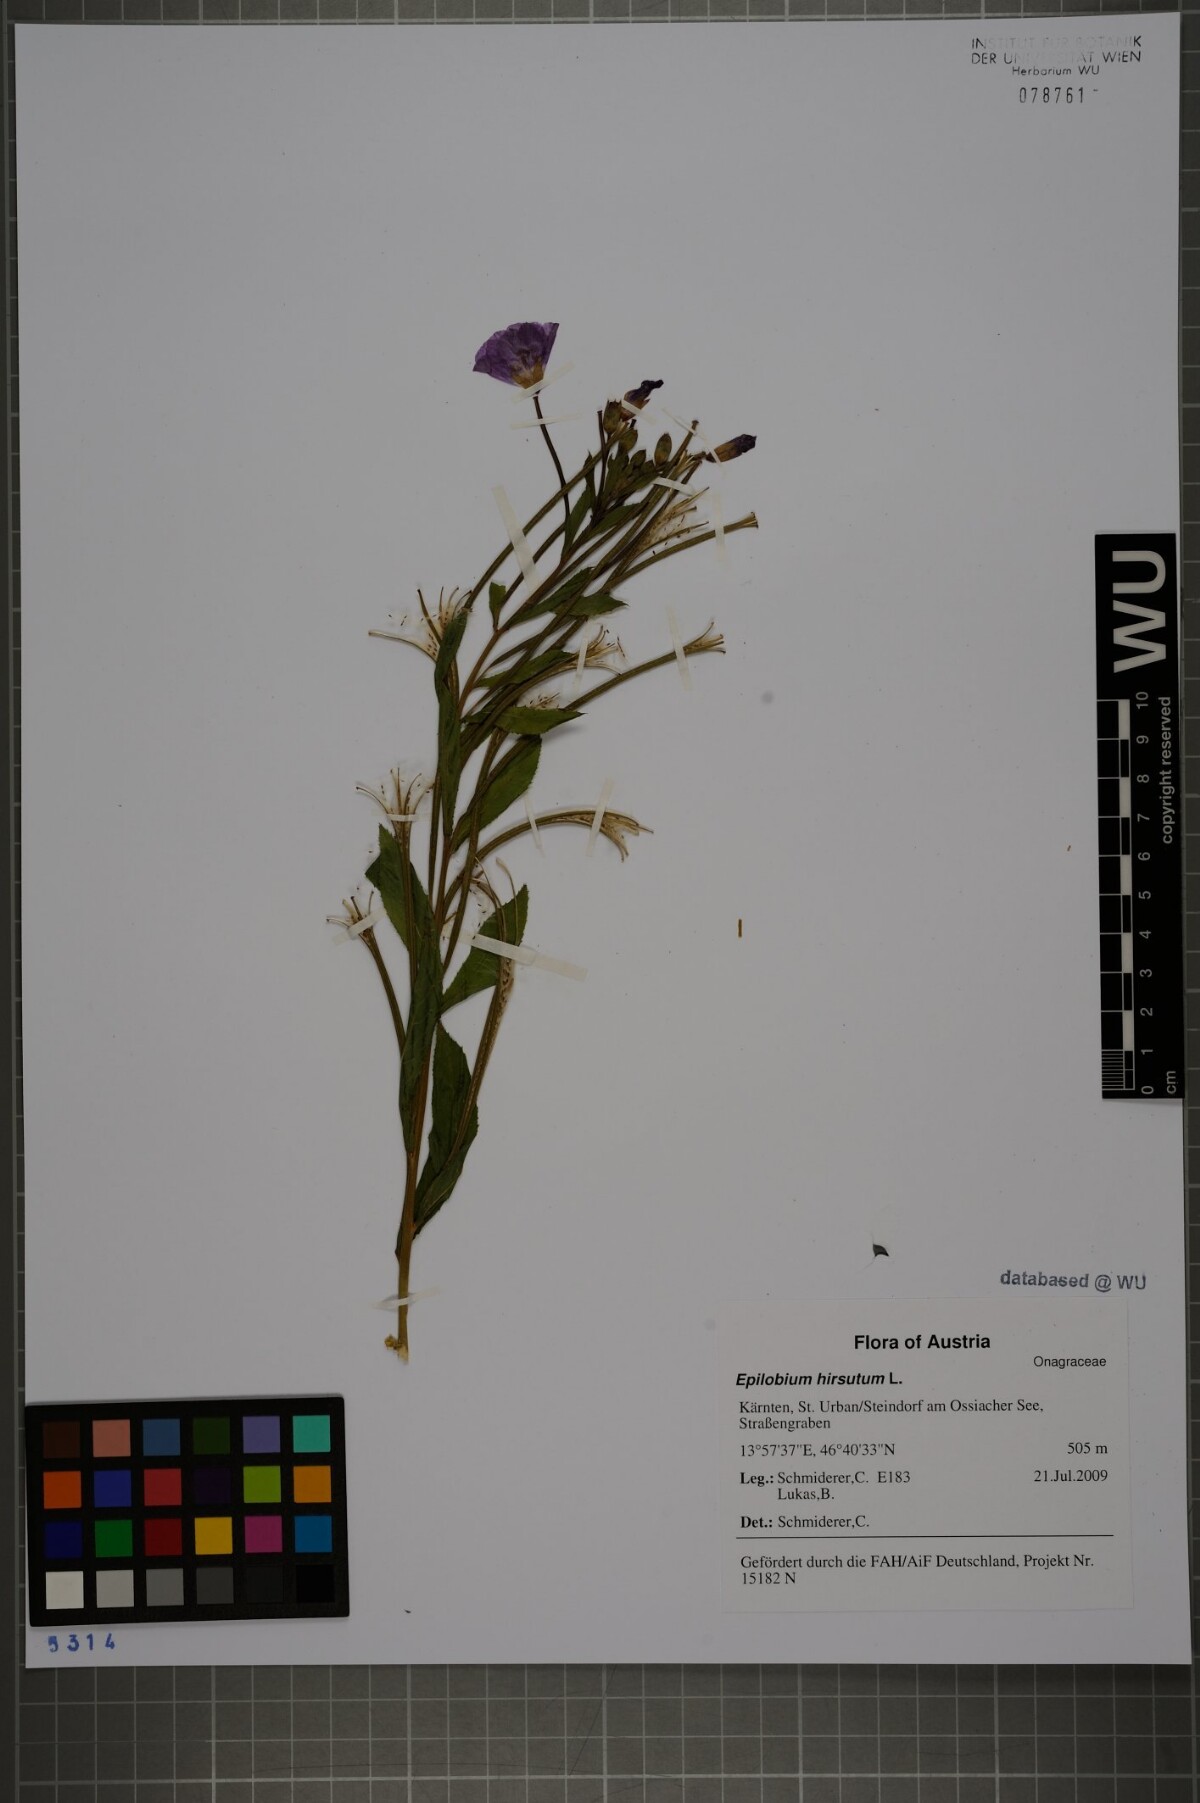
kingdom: Plantae
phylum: Tracheophyta
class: Magnoliopsida
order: Myrtales
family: Onagraceae
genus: Epilobium
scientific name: Epilobium hirsutum
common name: Great willowherb
